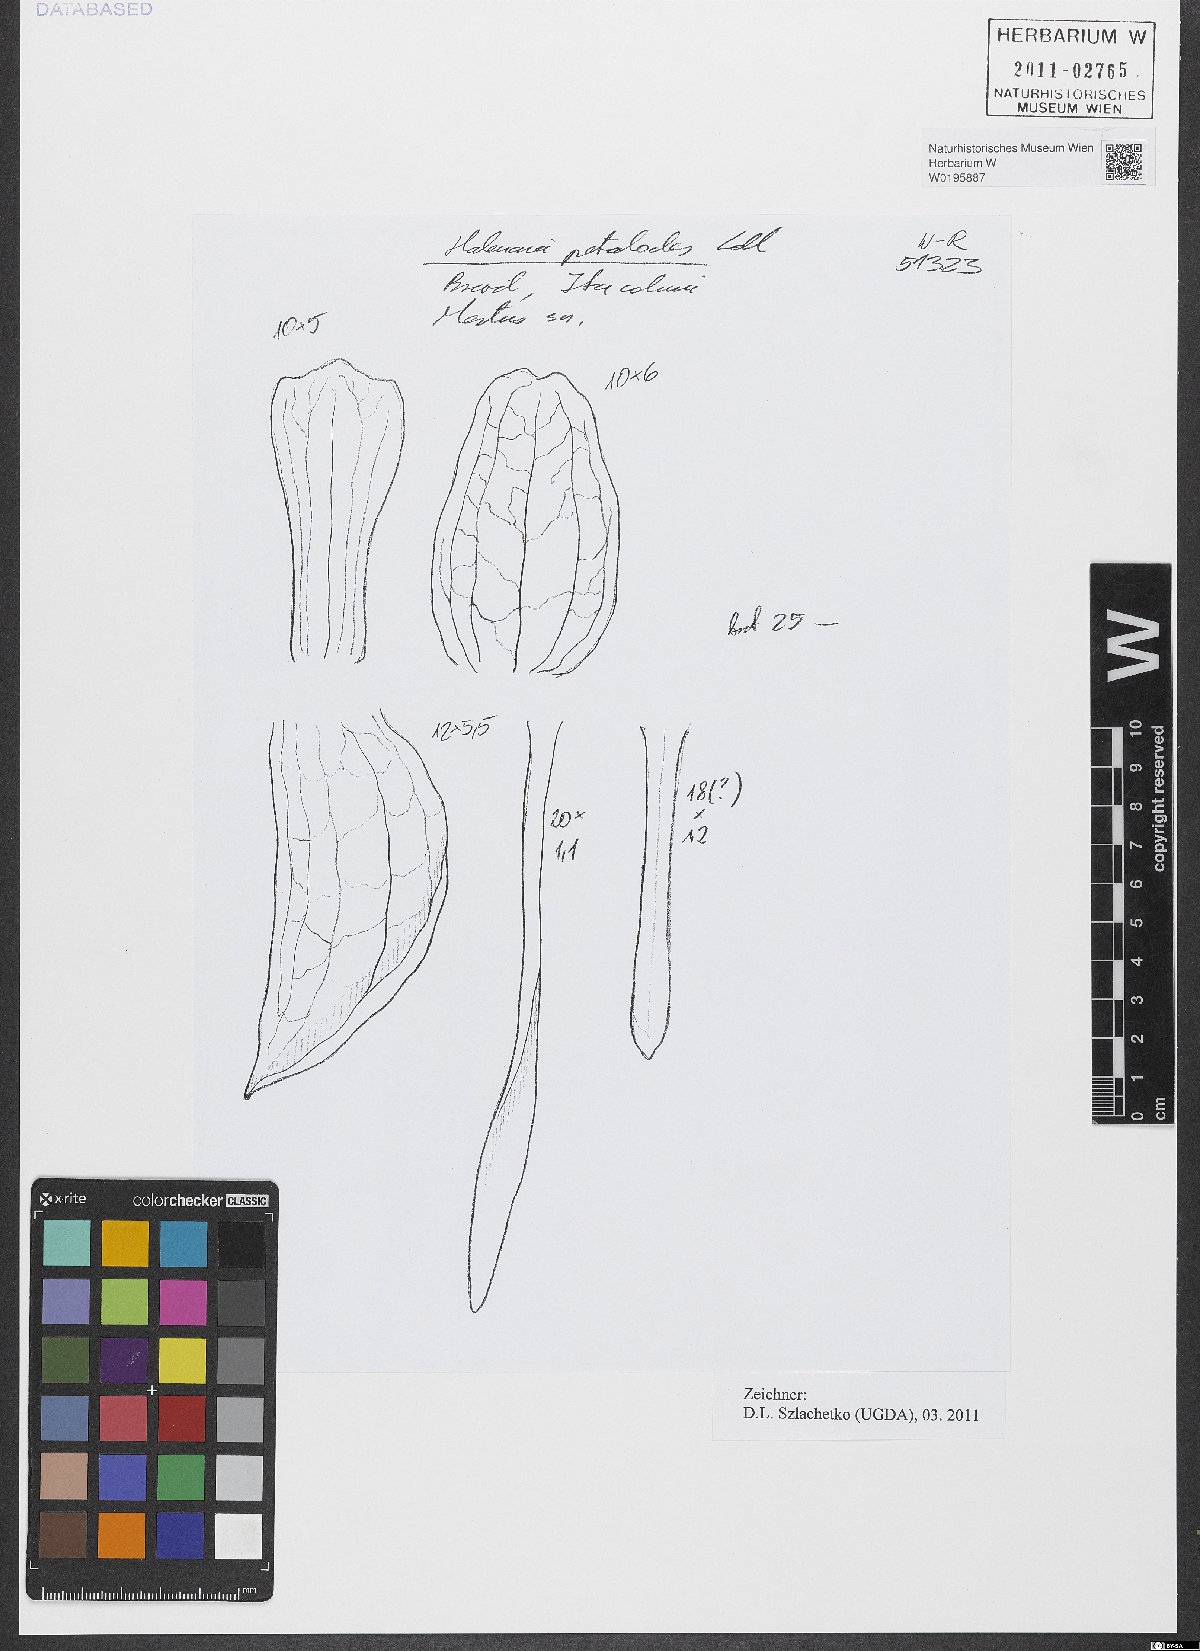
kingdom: Plantae
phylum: Tracheophyta
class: Liliopsida
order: Asparagales
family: Orchidaceae
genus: Habenaria
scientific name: Habenaria petalodes
